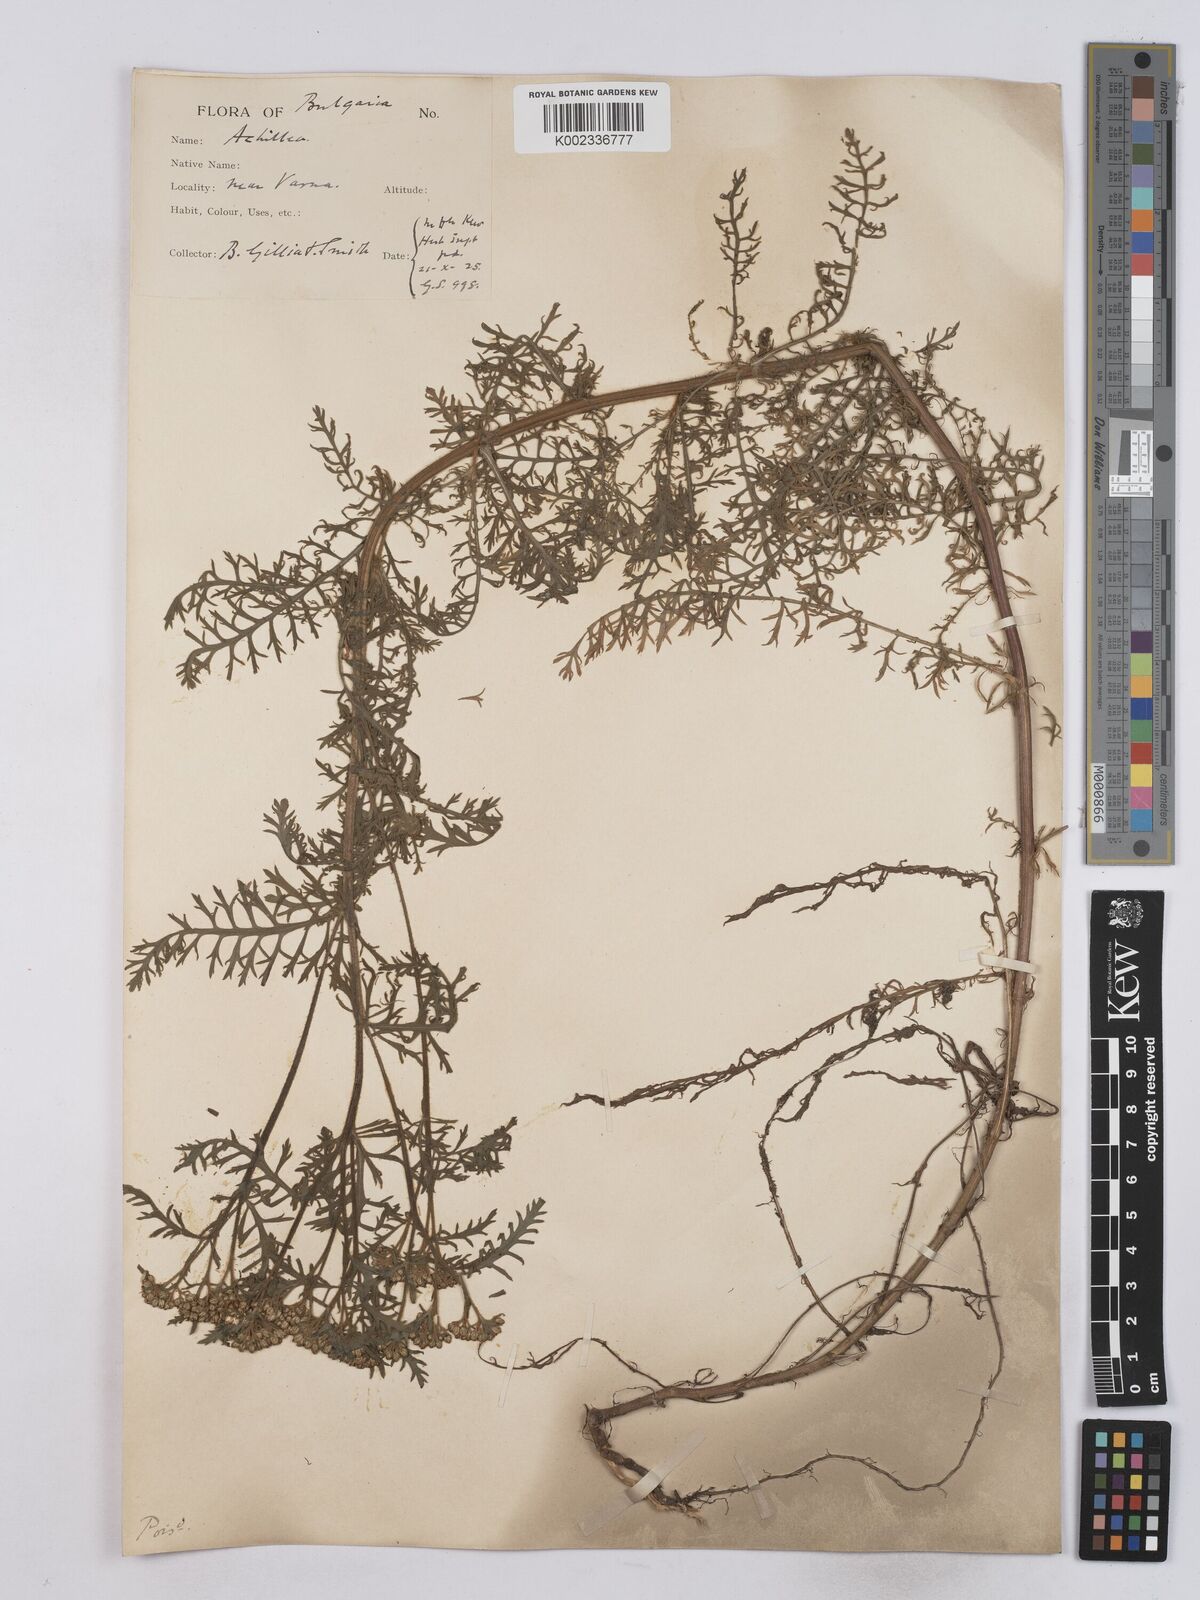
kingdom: Plantae
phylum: Tracheophyta
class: Magnoliopsida
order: Asterales
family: Asteraceae
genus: Achillea
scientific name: Achillea crithmifolia
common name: Yarrow
